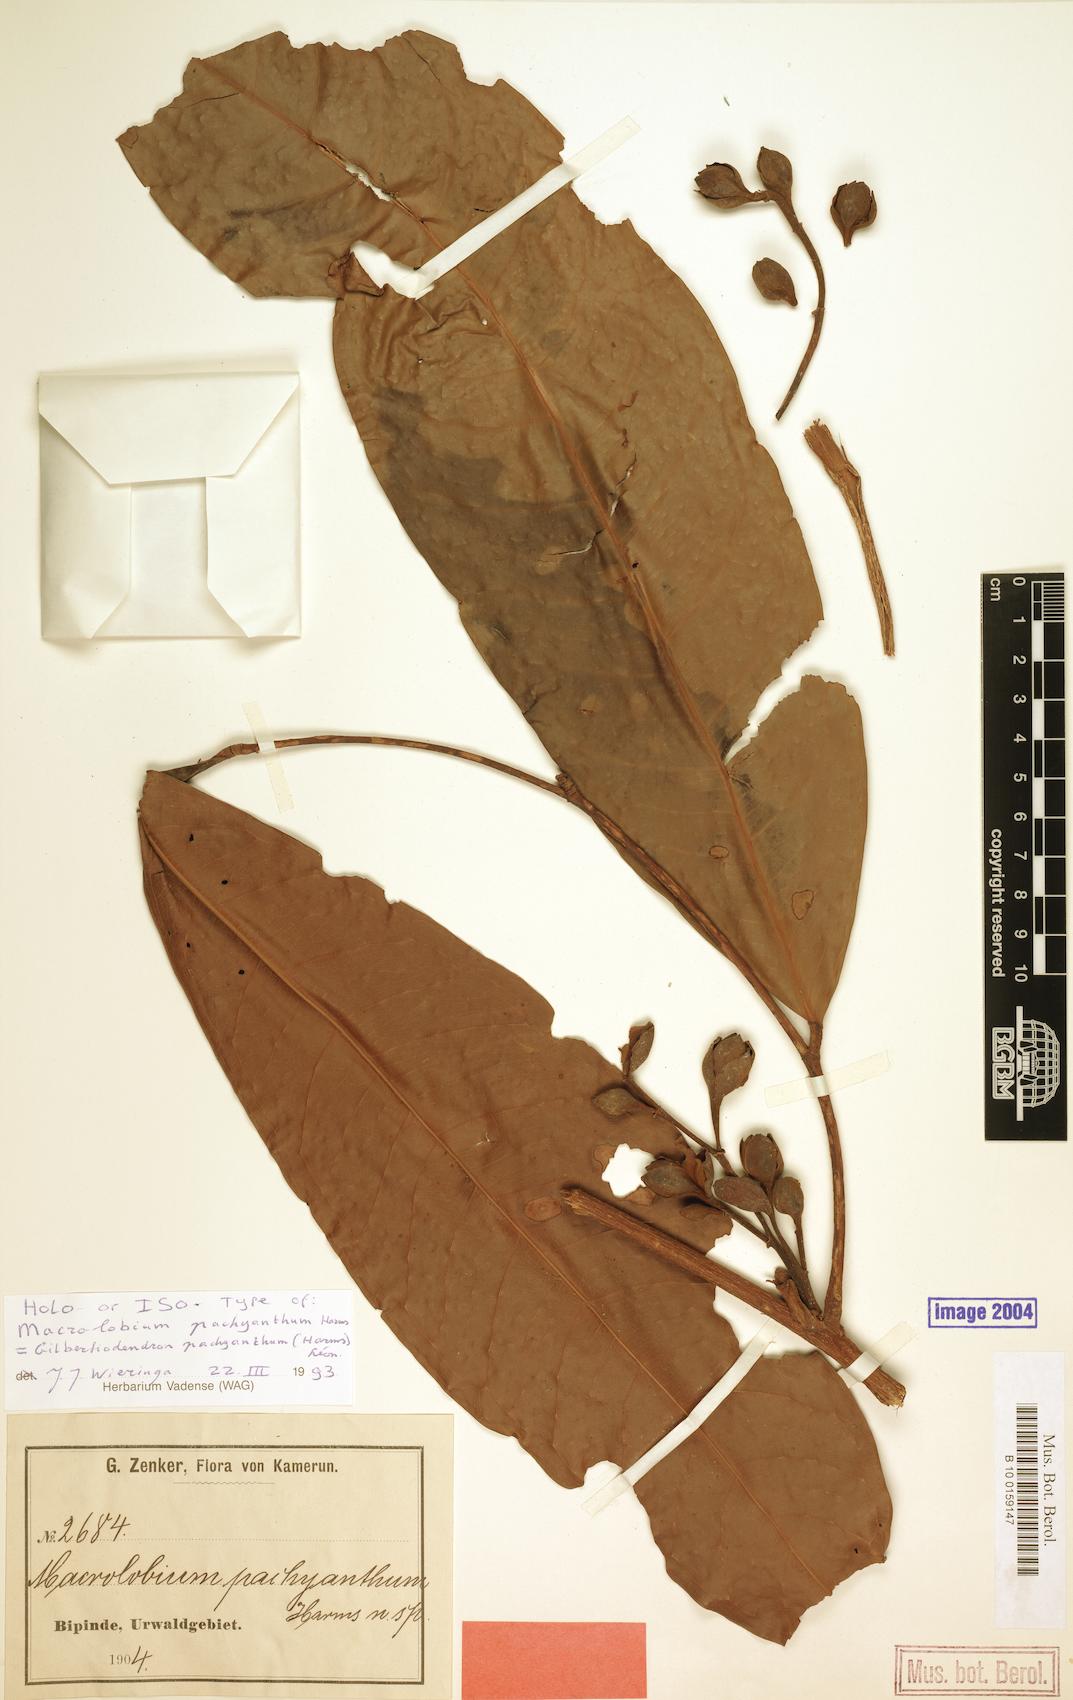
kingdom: Plantae
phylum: Tracheophyta
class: Magnoliopsida
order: Fabales
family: Fabaceae
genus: Gilbertiodendron
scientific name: Gilbertiodendron pachyanthum
